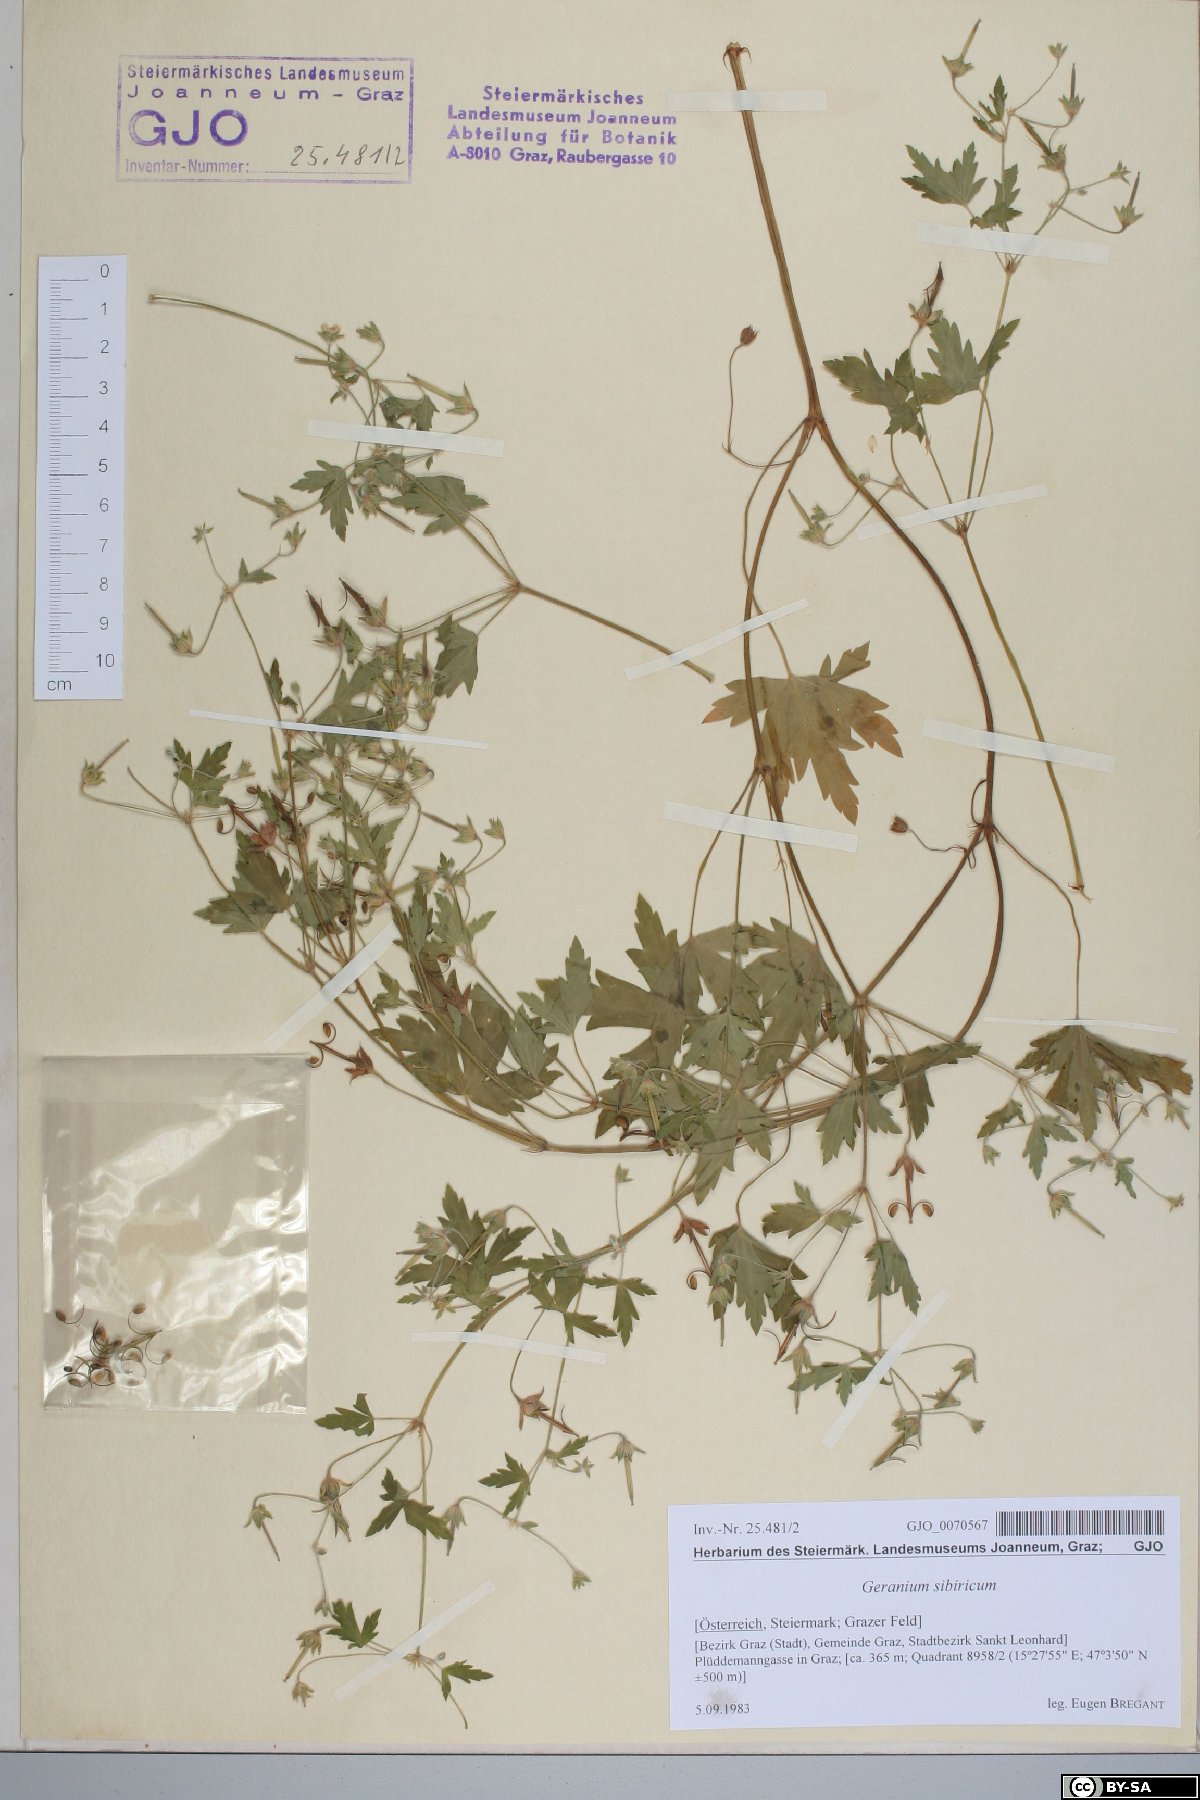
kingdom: Plantae
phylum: Tracheophyta
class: Magnoliopsida
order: Geraniales
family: Geraniaceae
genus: Geranium
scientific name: Geranium sibiricum
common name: Siberian crane's-bill
